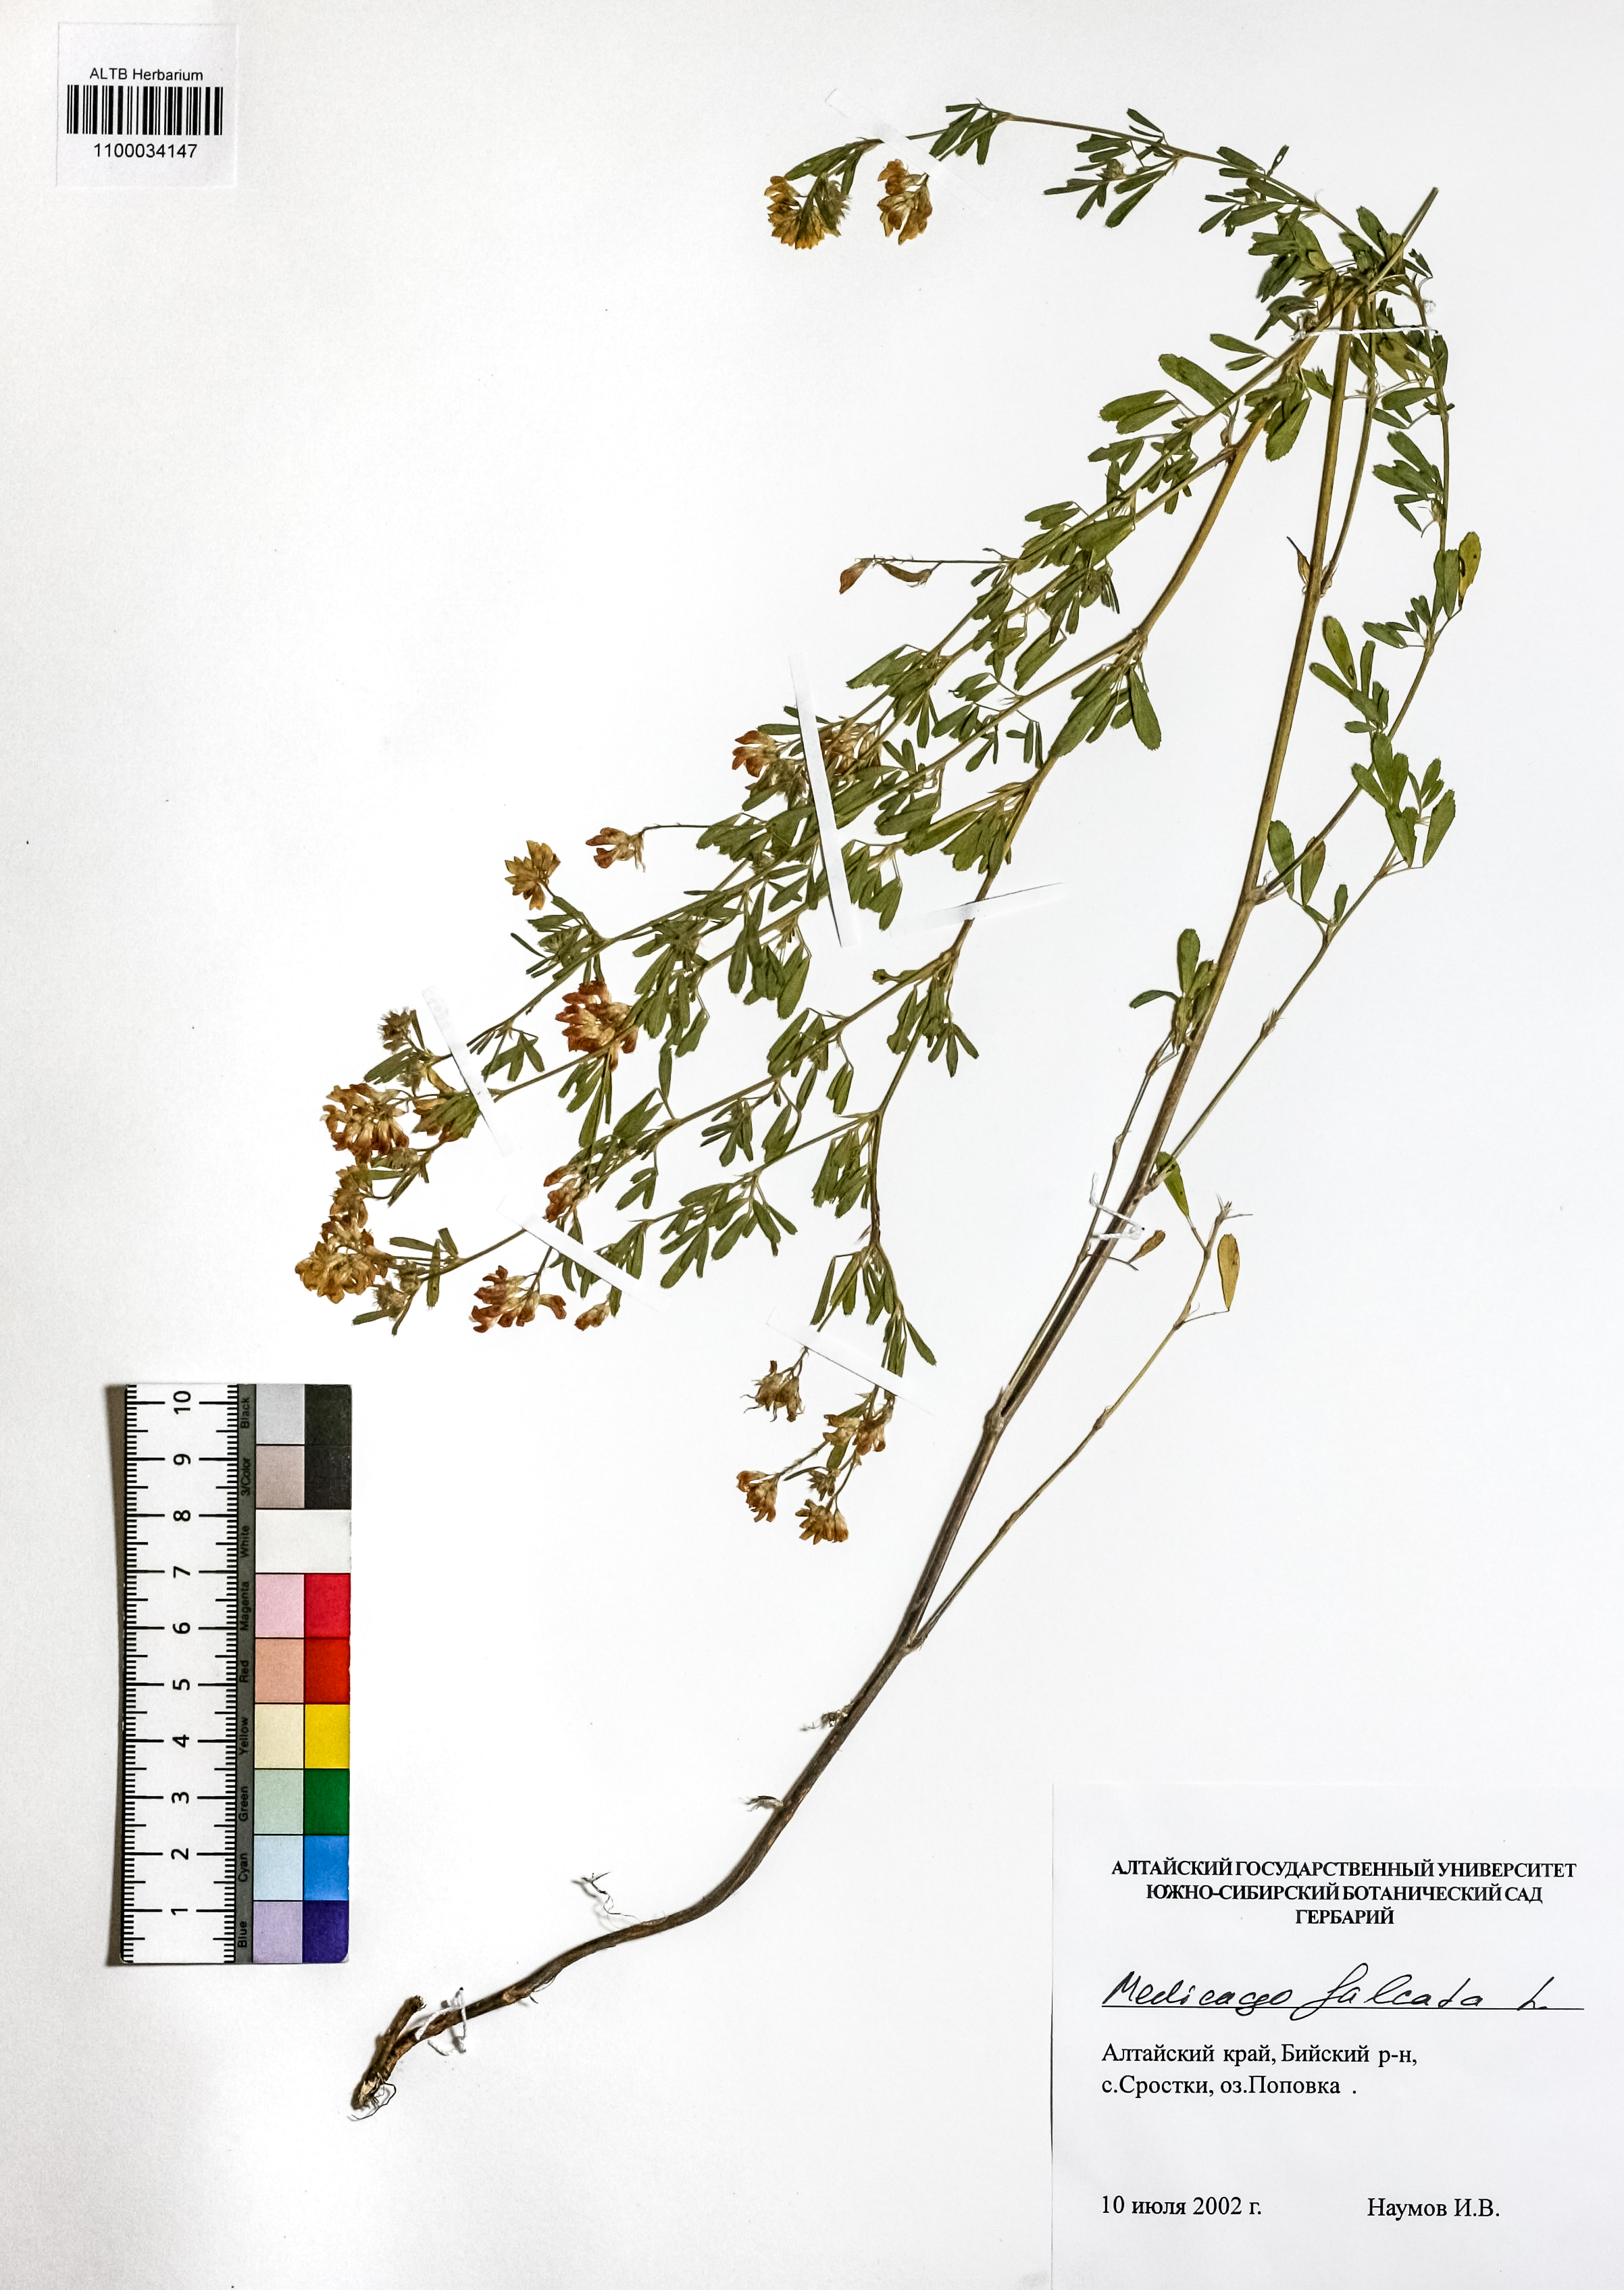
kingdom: Plantae
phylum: Tracheophyta
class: Magnoliopsida
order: Fabales
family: Fabaceae
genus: Medicago
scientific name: Medicago falcata
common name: Sickle medick
